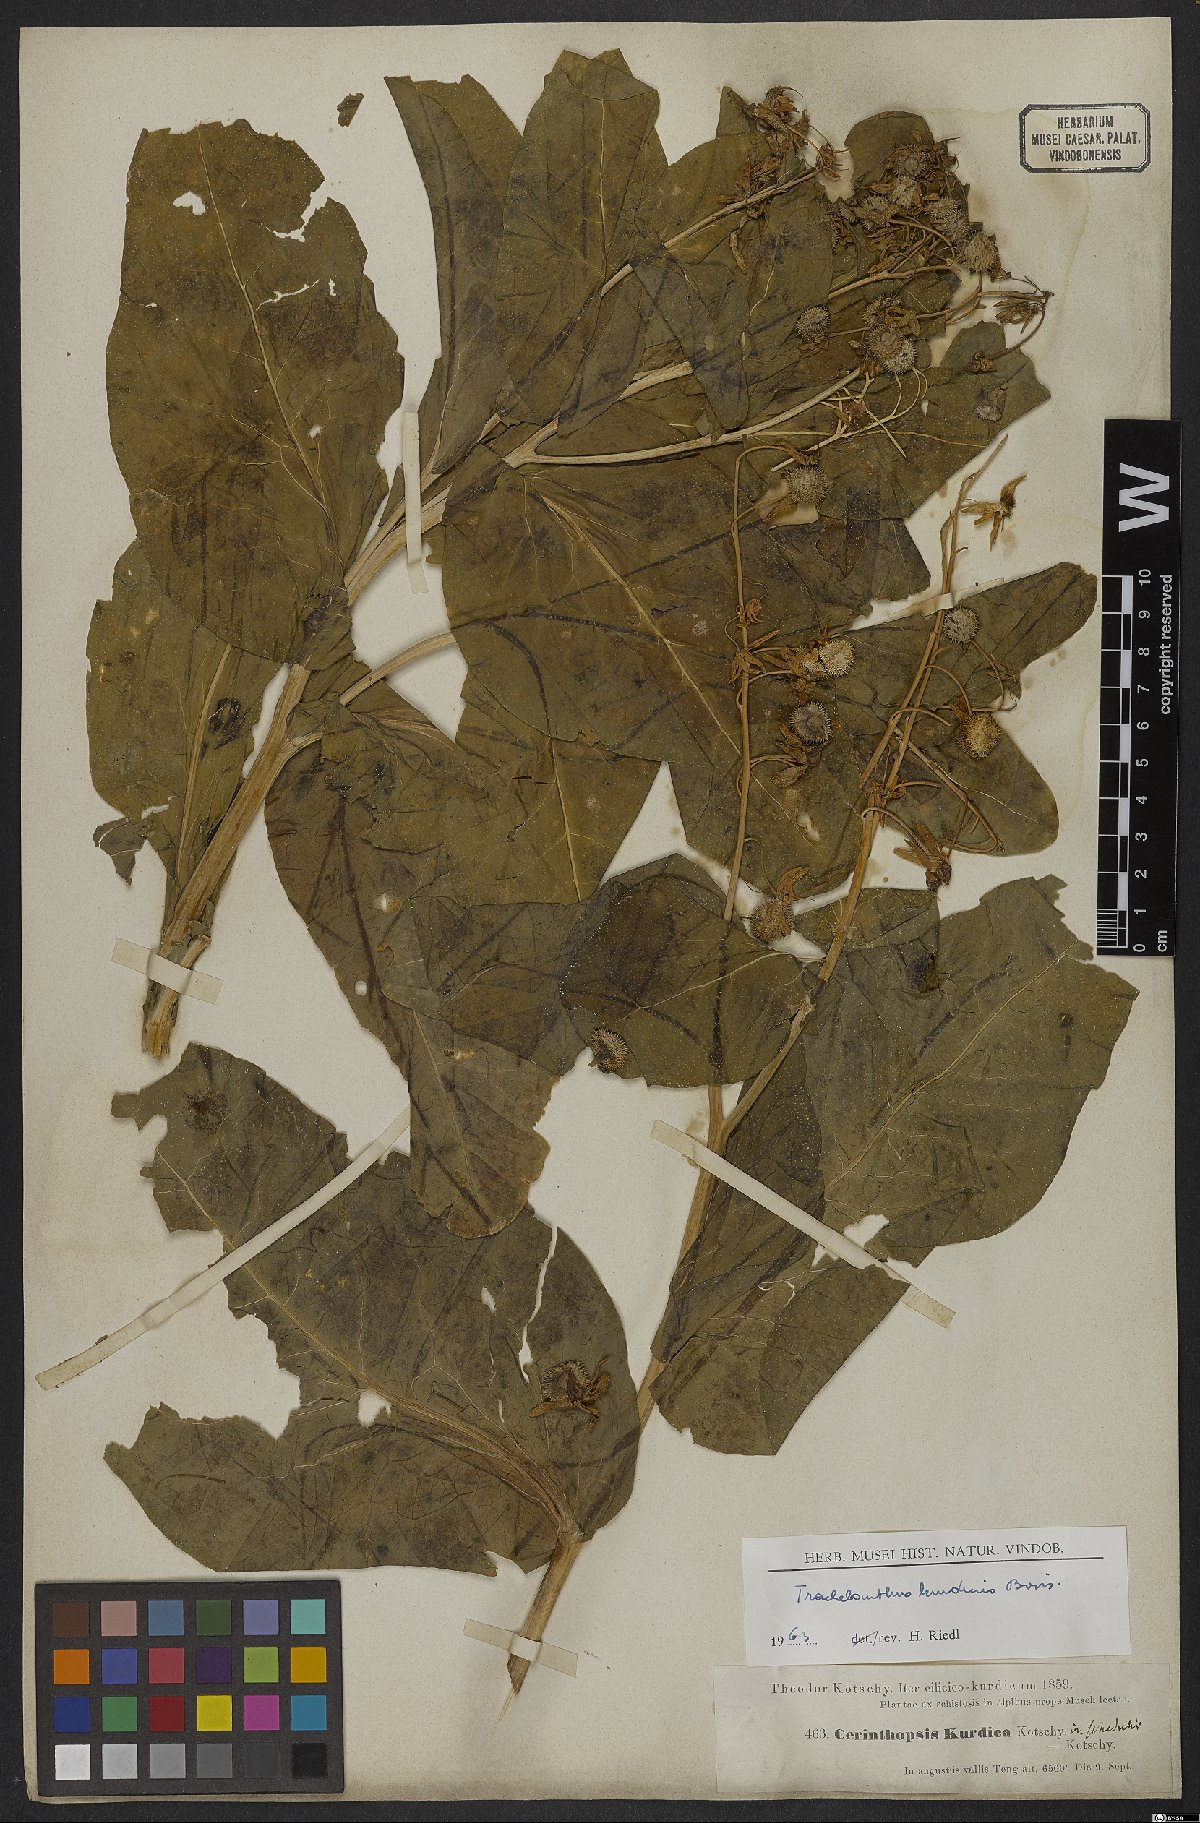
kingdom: Plantae
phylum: Tracheophyta
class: Magnoliopsida
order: Boraginales
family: Boraginaceae
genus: Lindelofia
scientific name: Lindelofia cerinthoides
